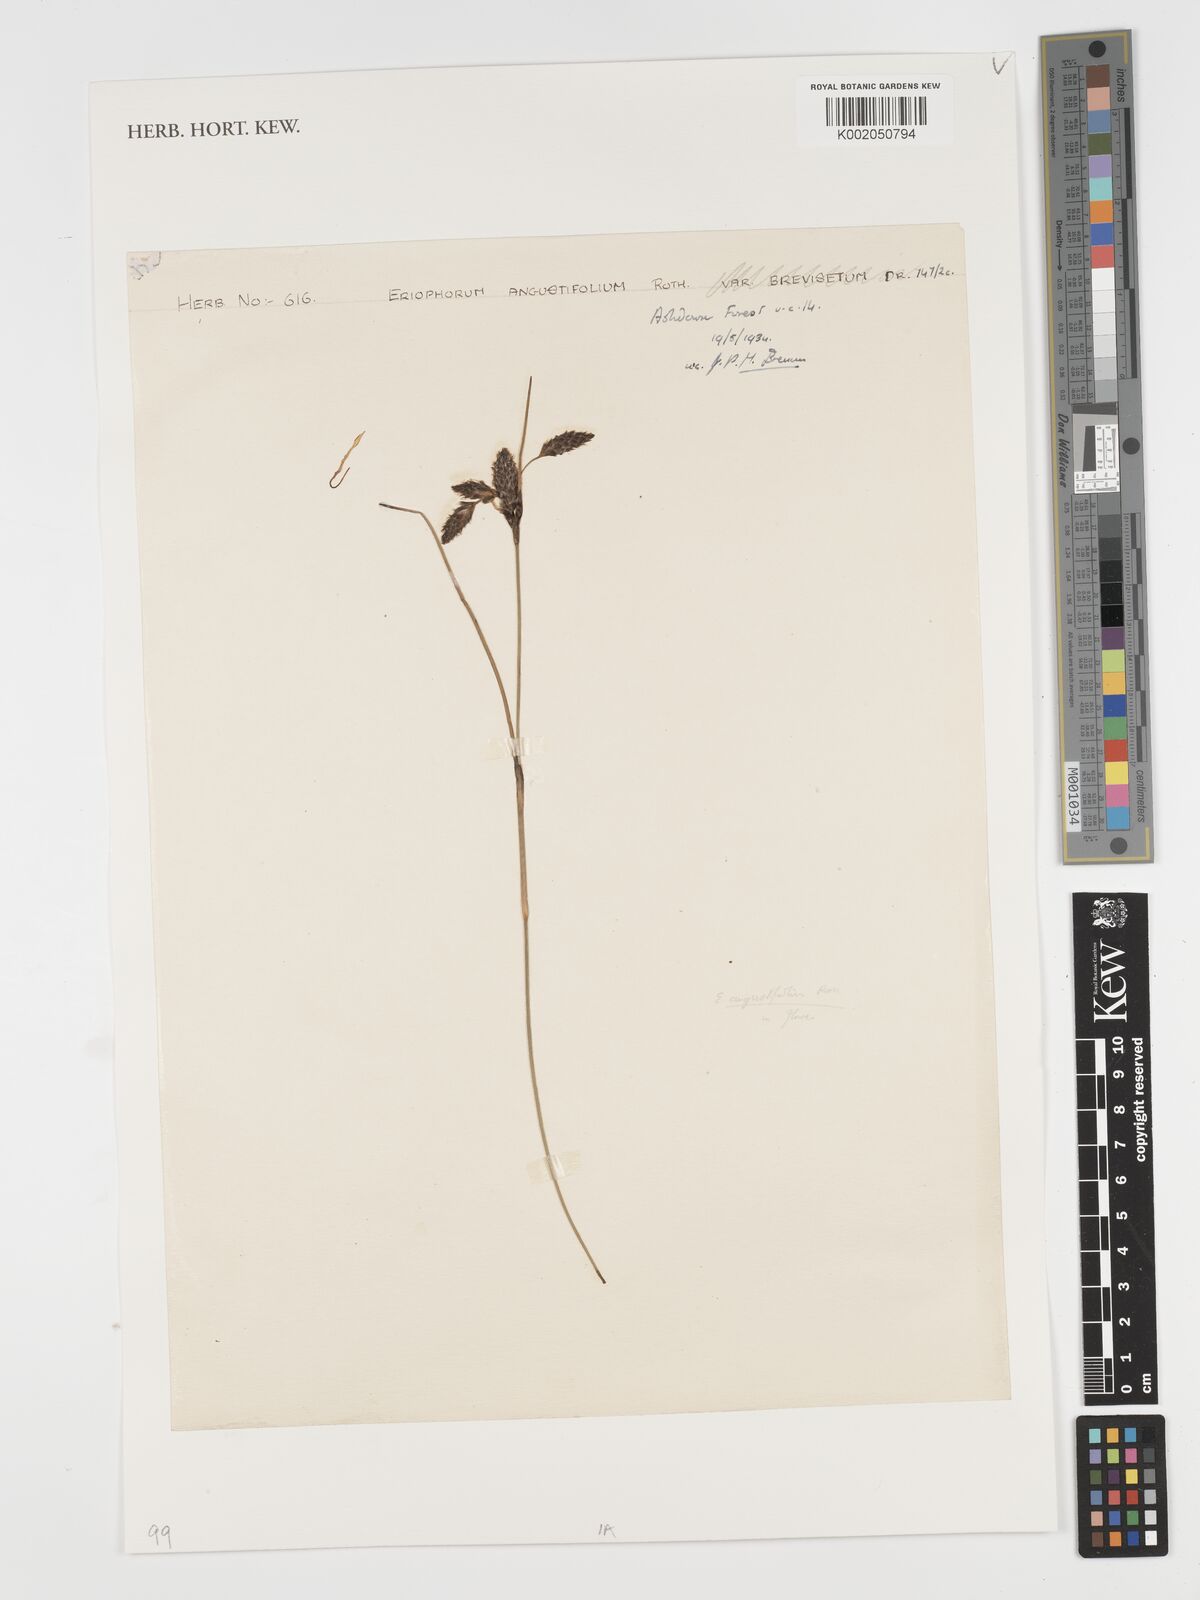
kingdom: Plantae
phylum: Tracheophyta
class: Liliopsida
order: Poales
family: Cyperaceae
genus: Eriophorum
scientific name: Eriophorum angustifolium
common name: Common cottongrass
